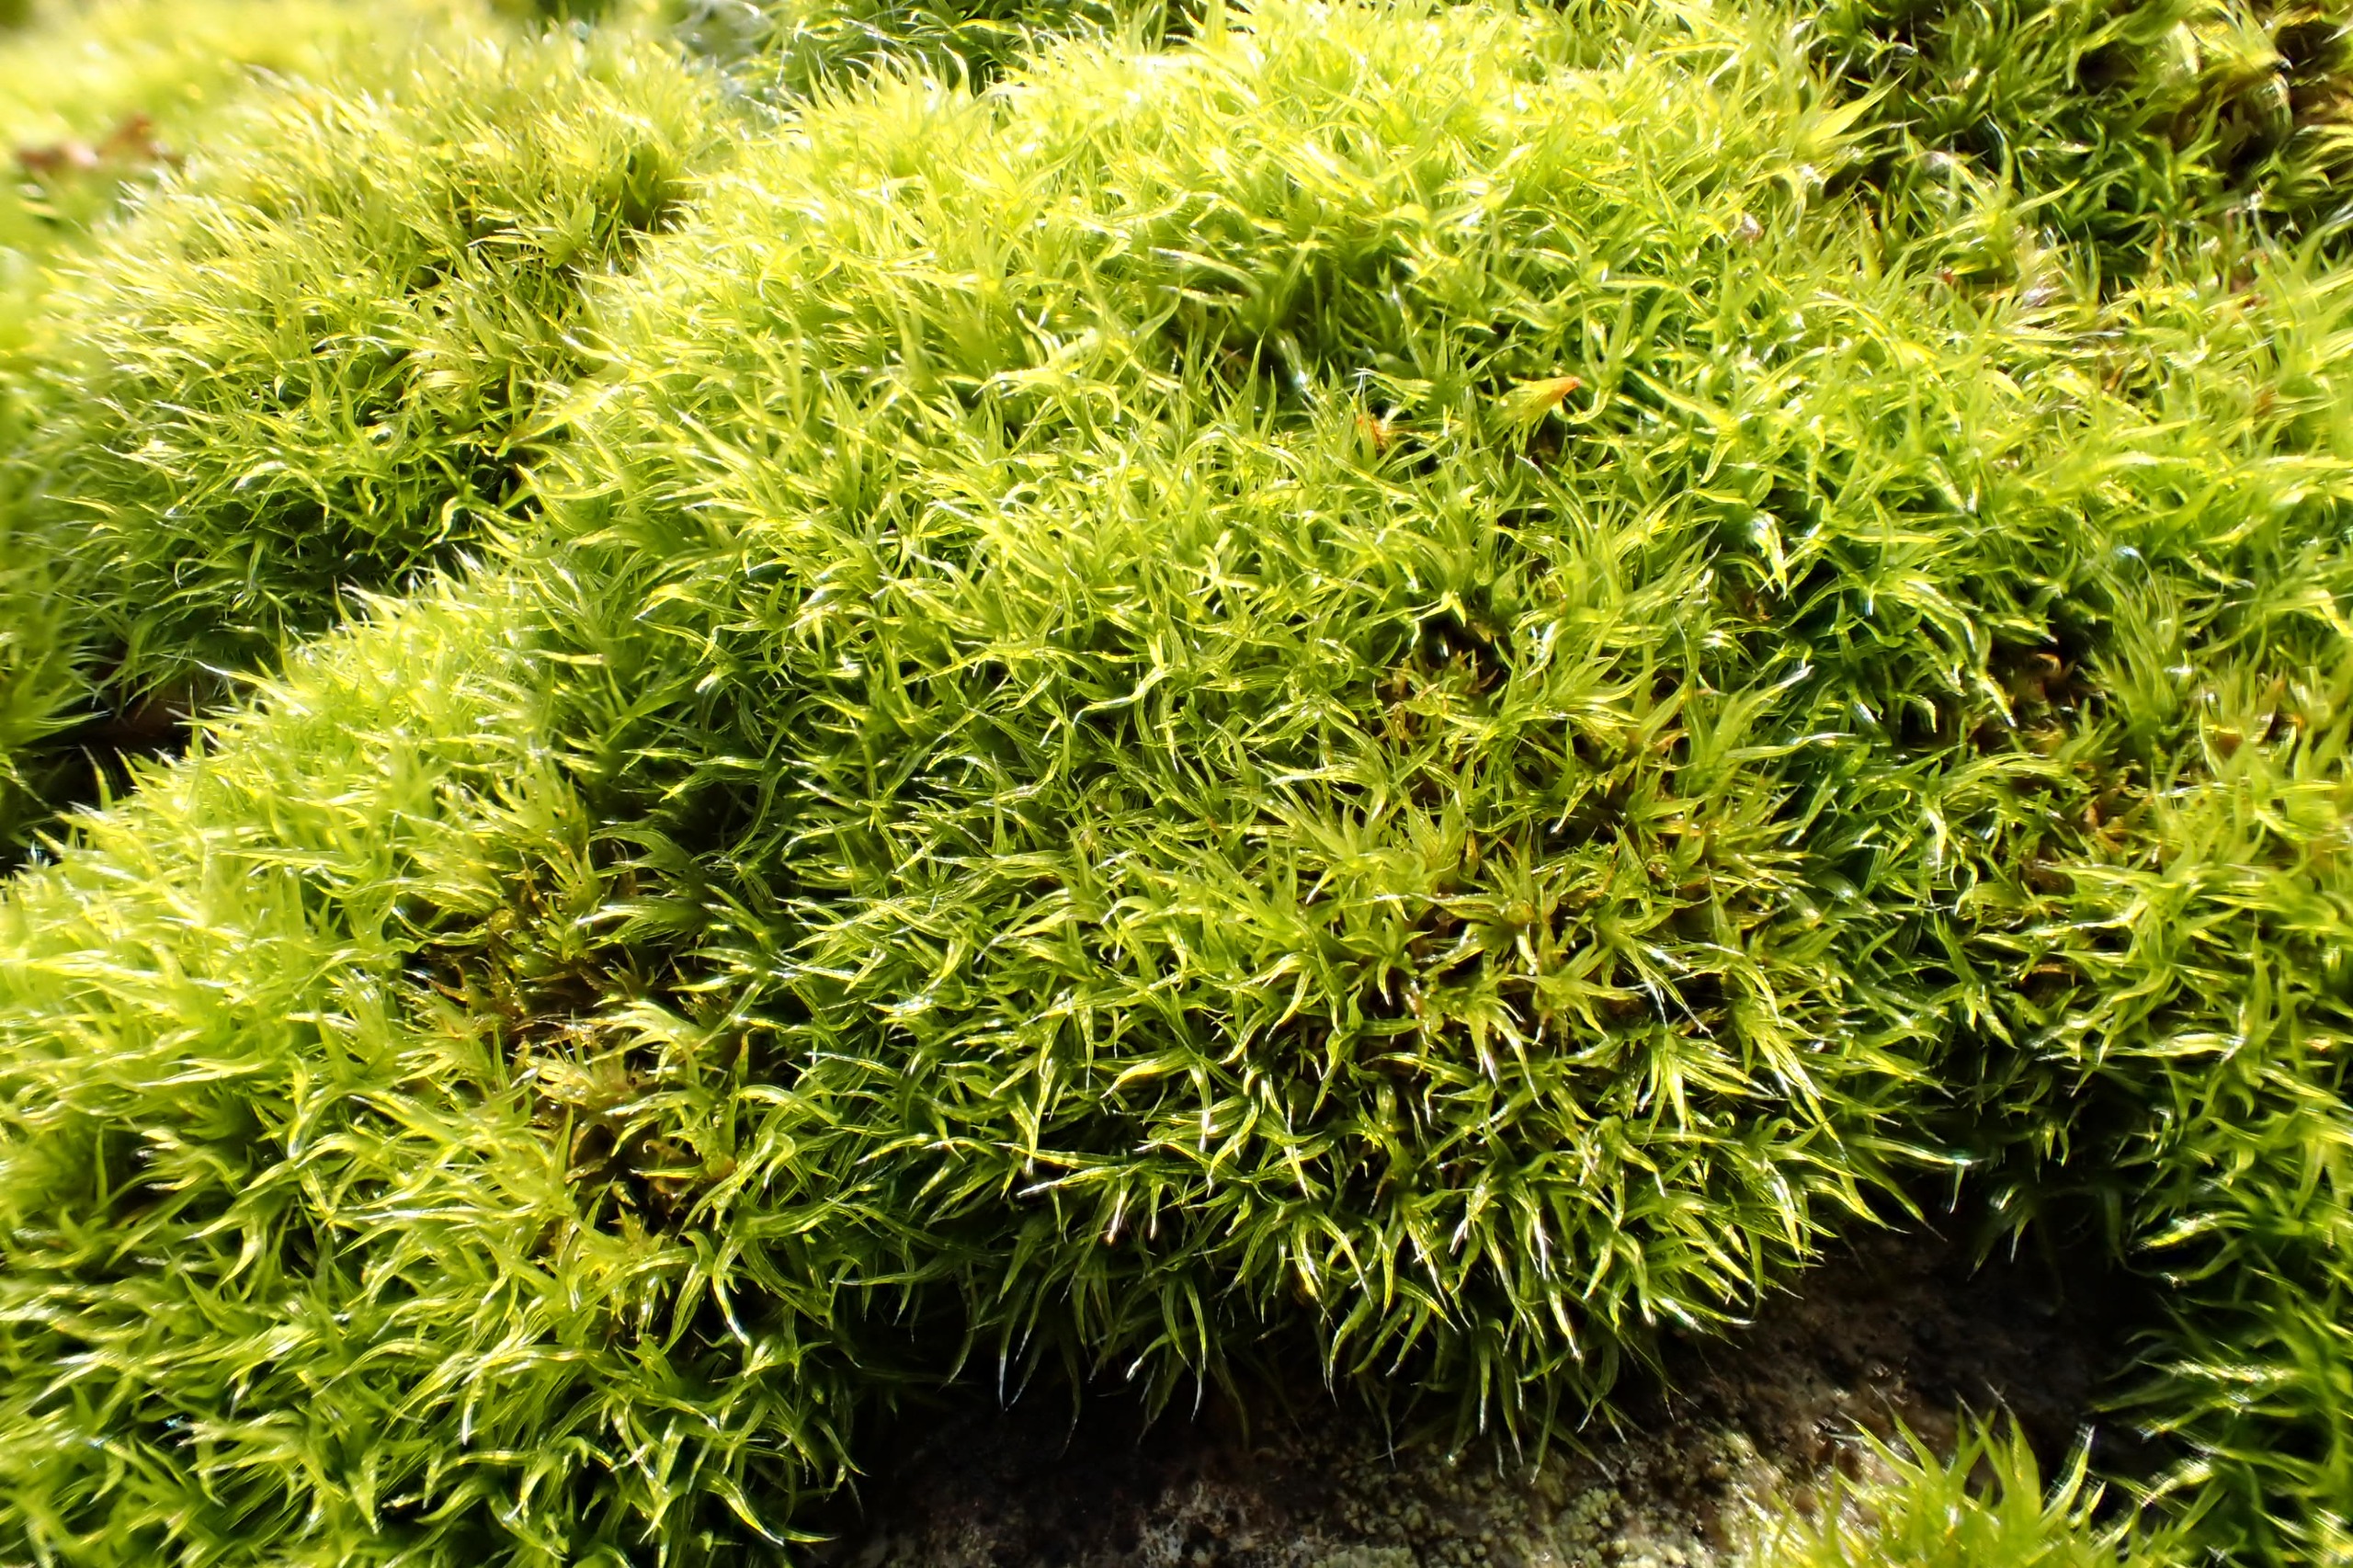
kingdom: Plantae
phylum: Bryophyta
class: Bryopsida
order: Grimmiales
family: Grimmiaceae
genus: Grimmia
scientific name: Grimmia trichophylla
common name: Glathåret gråmos
